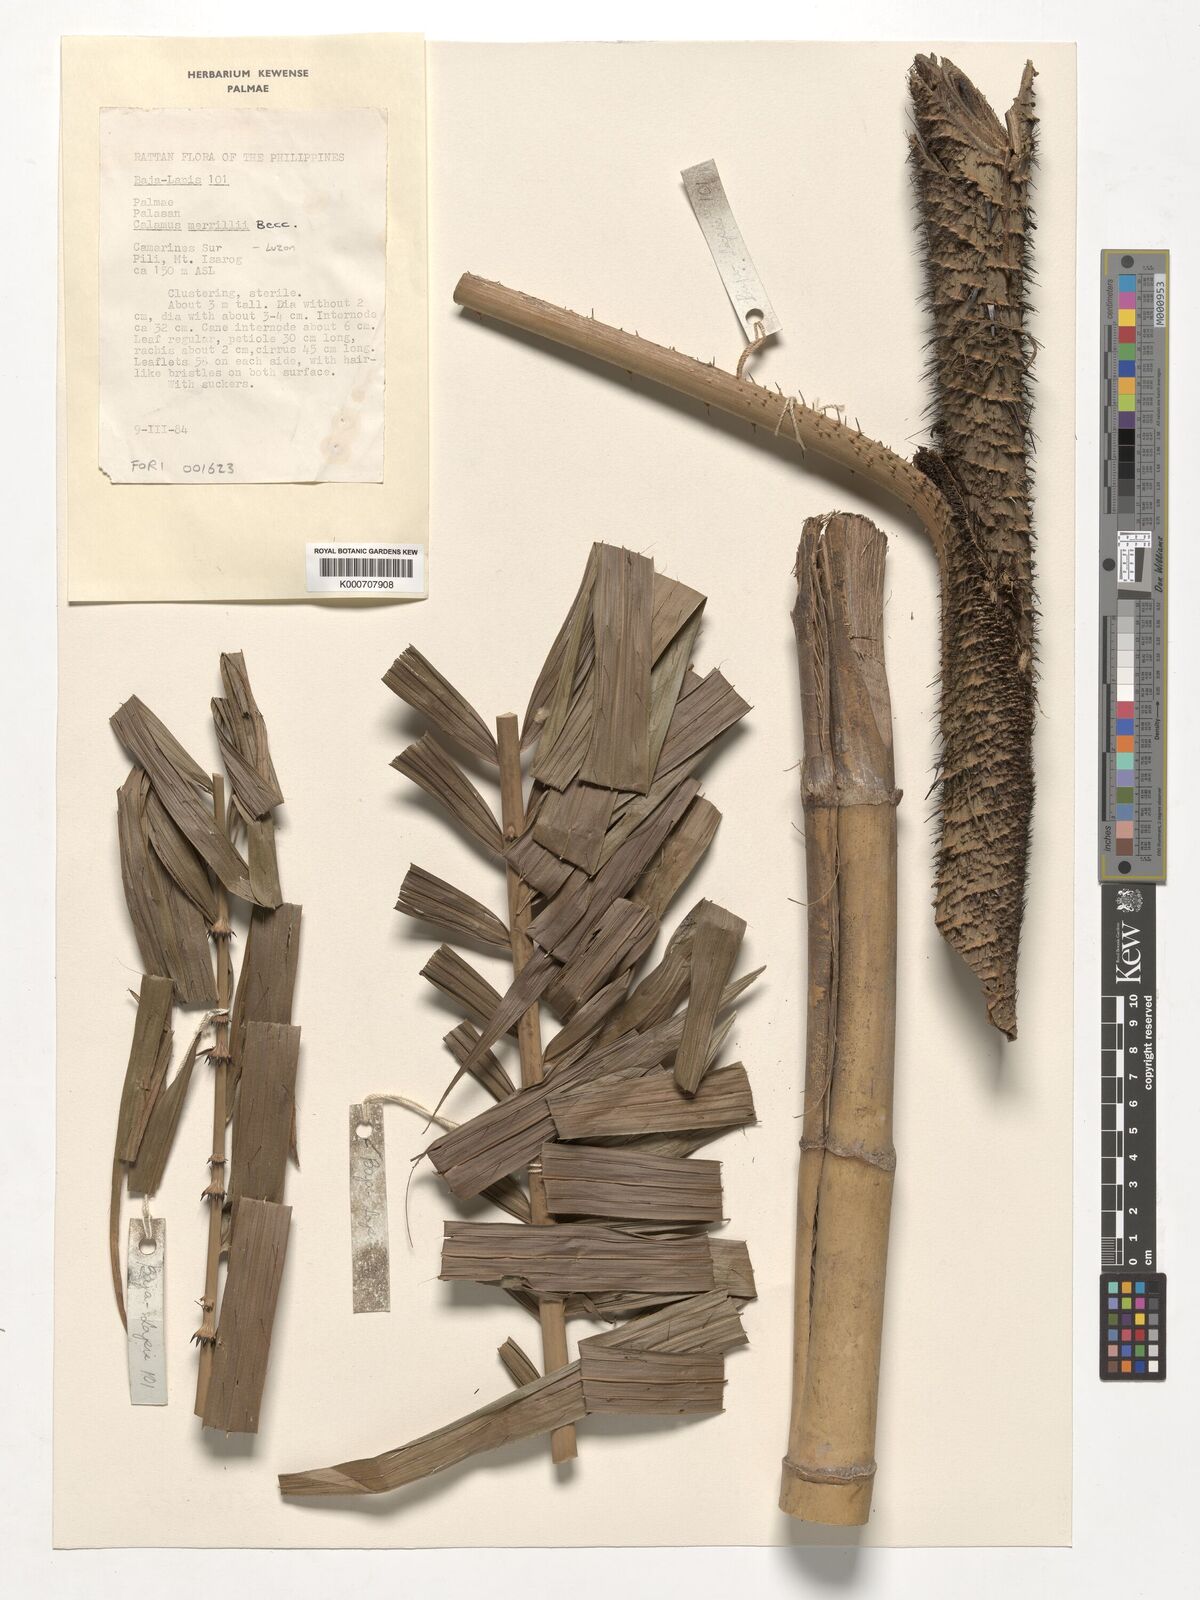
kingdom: Plantae
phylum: Tracheophyta
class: Liliopsida
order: Arecales
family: Arecaceae
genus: Calamus
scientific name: Calamus zollingeri
